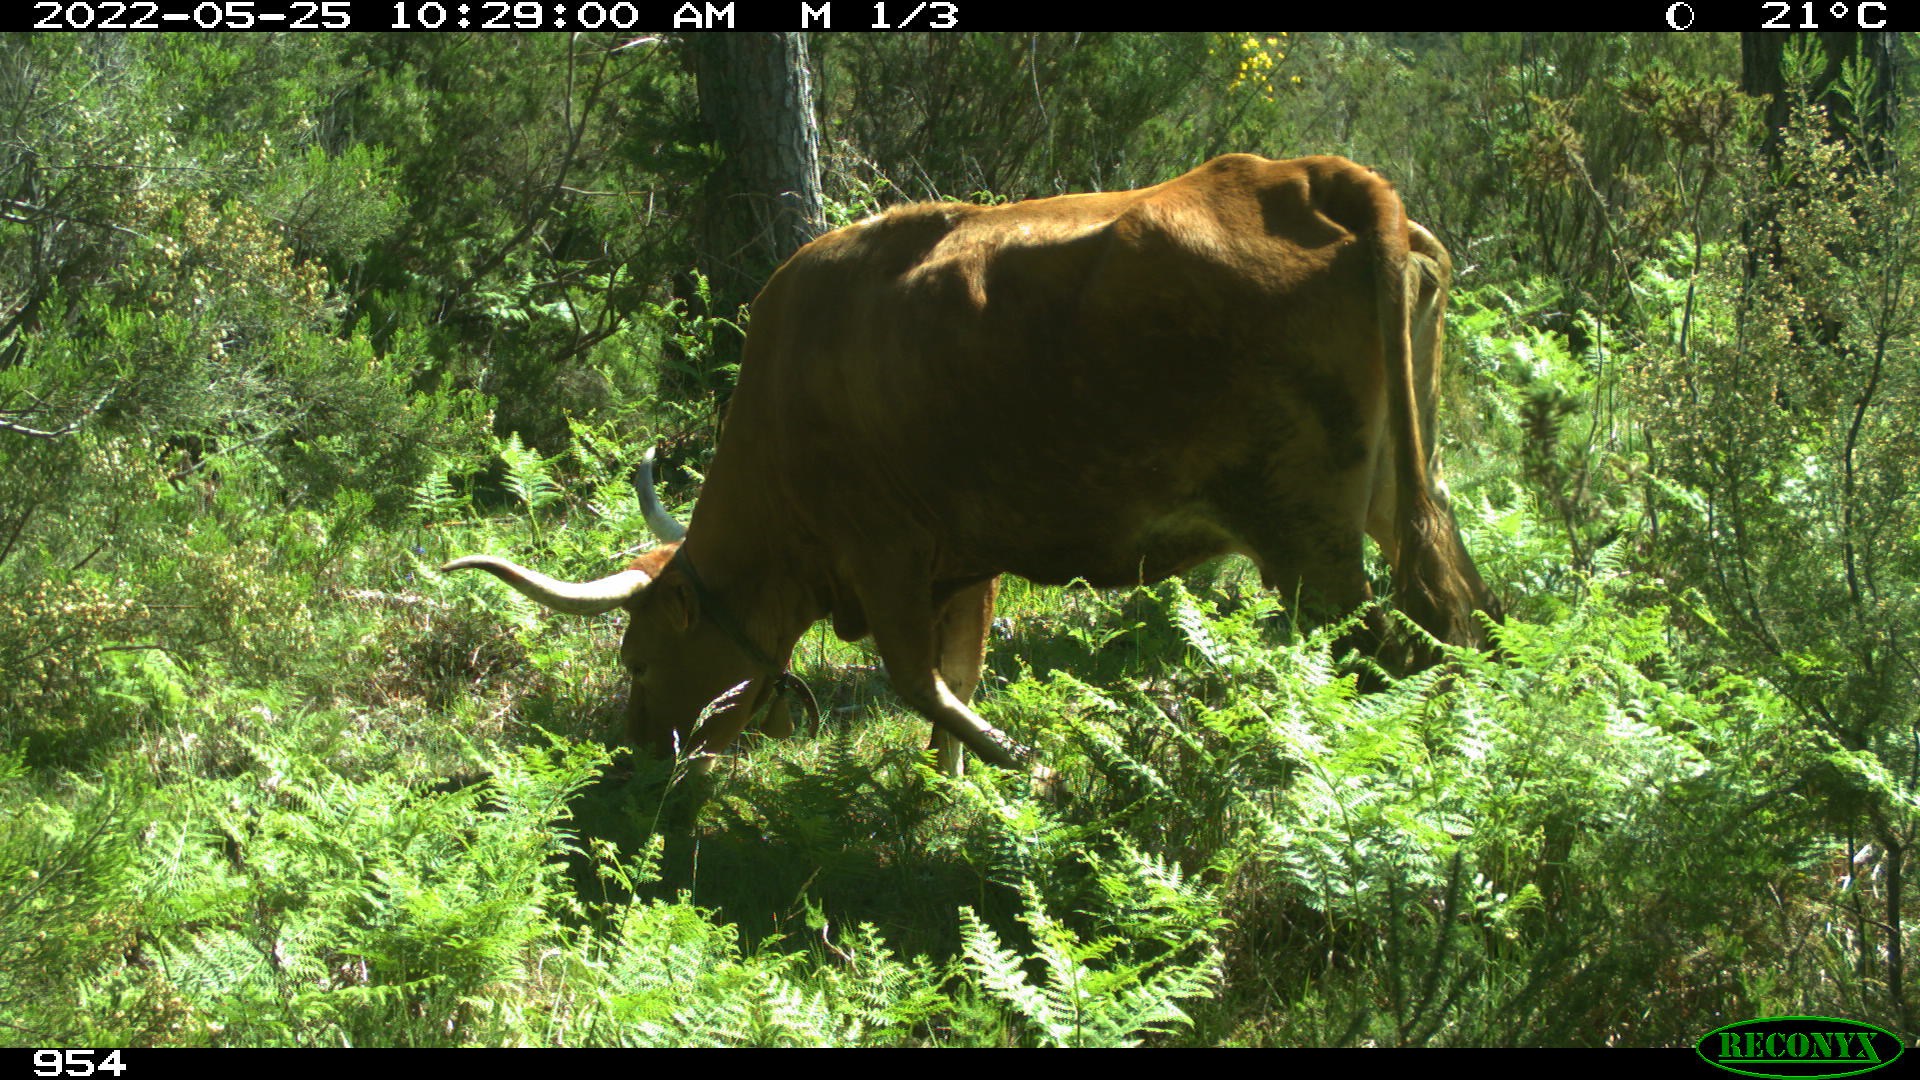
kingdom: Animalia
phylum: Chordata
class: Mammalia
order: Carnivora
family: Canidae
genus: Canis
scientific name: Canis lupus
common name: Gray wolf
